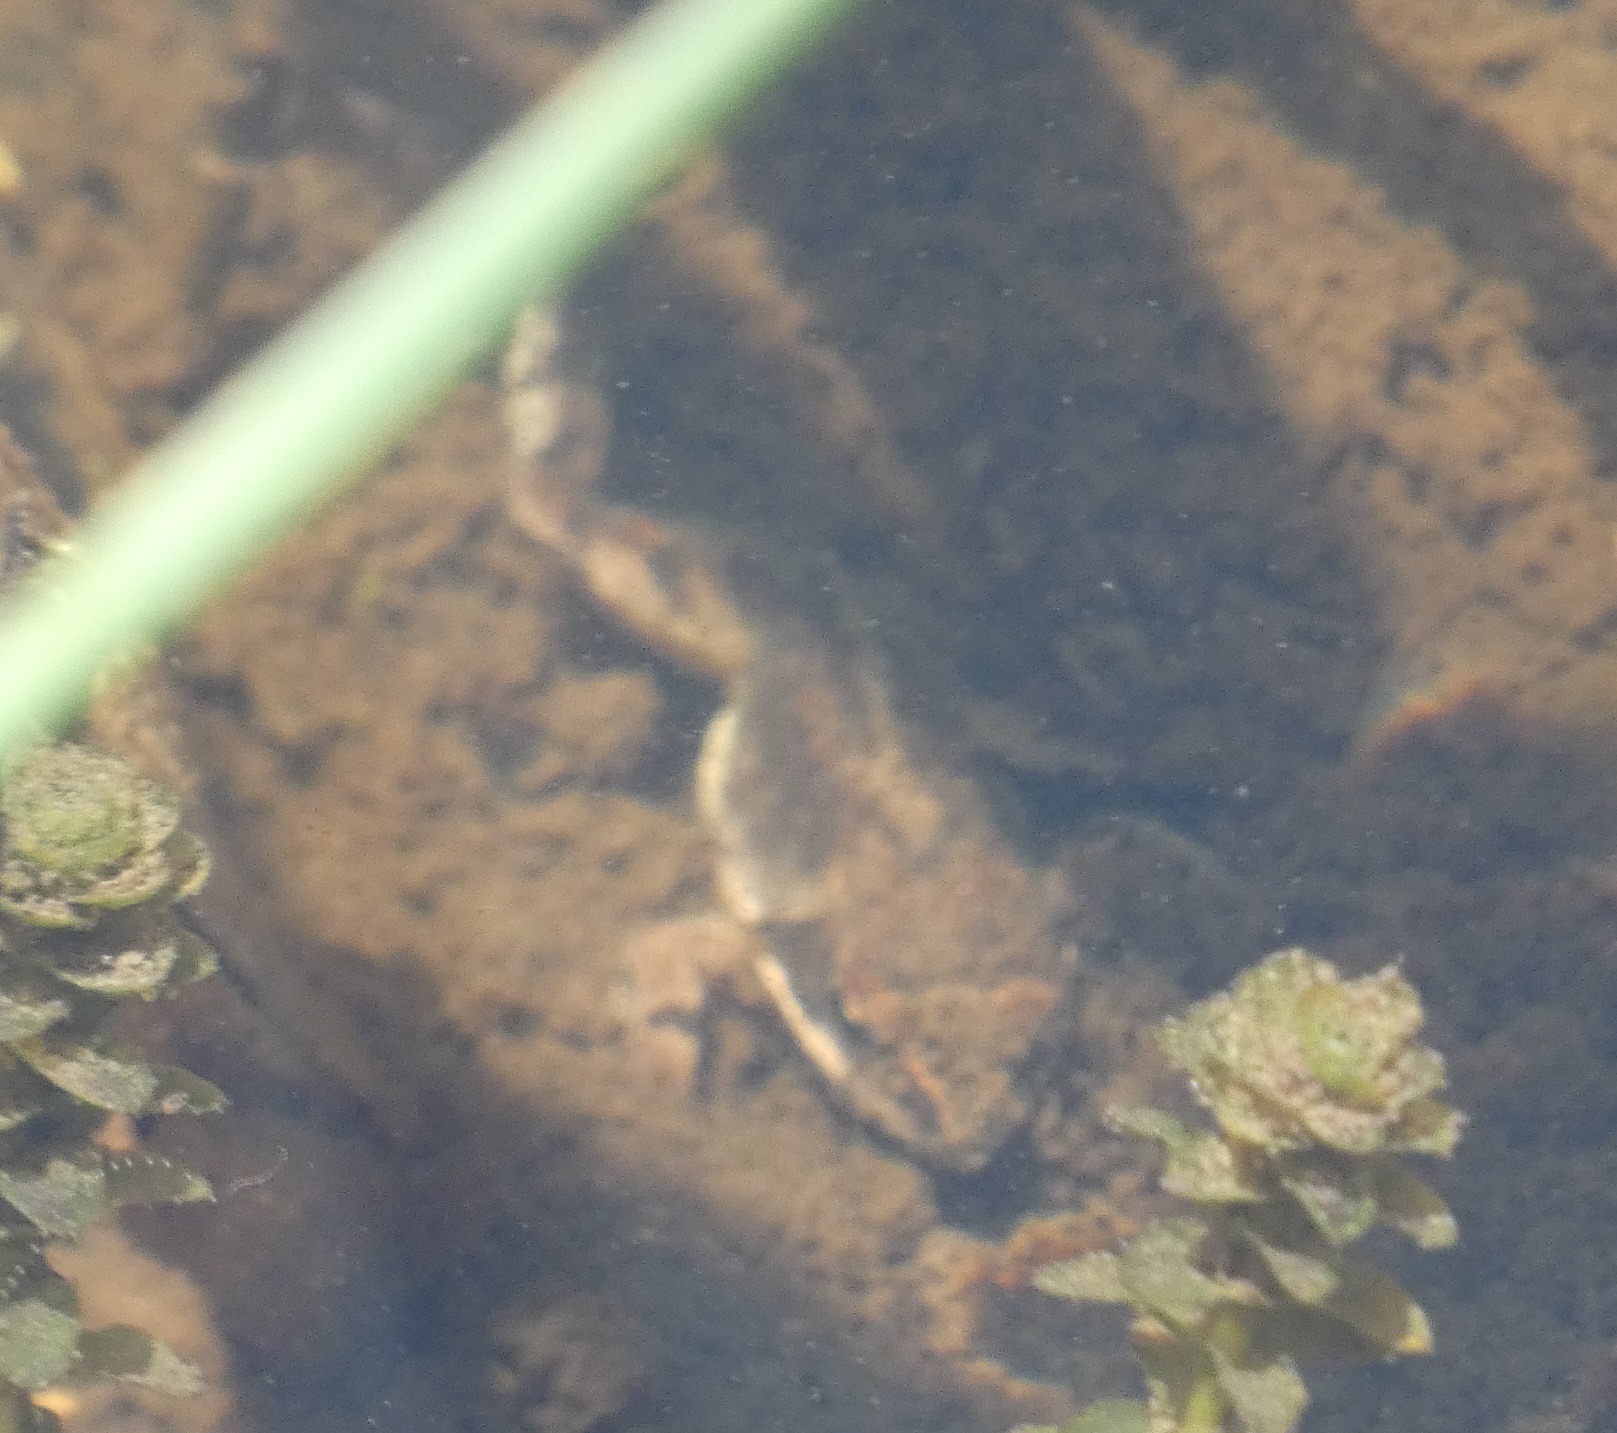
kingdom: Animalia
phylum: Chordata
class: Amphibia
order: Anura
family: Ranidae
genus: Rana
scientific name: Rana temporaria
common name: Butsnudet frø
